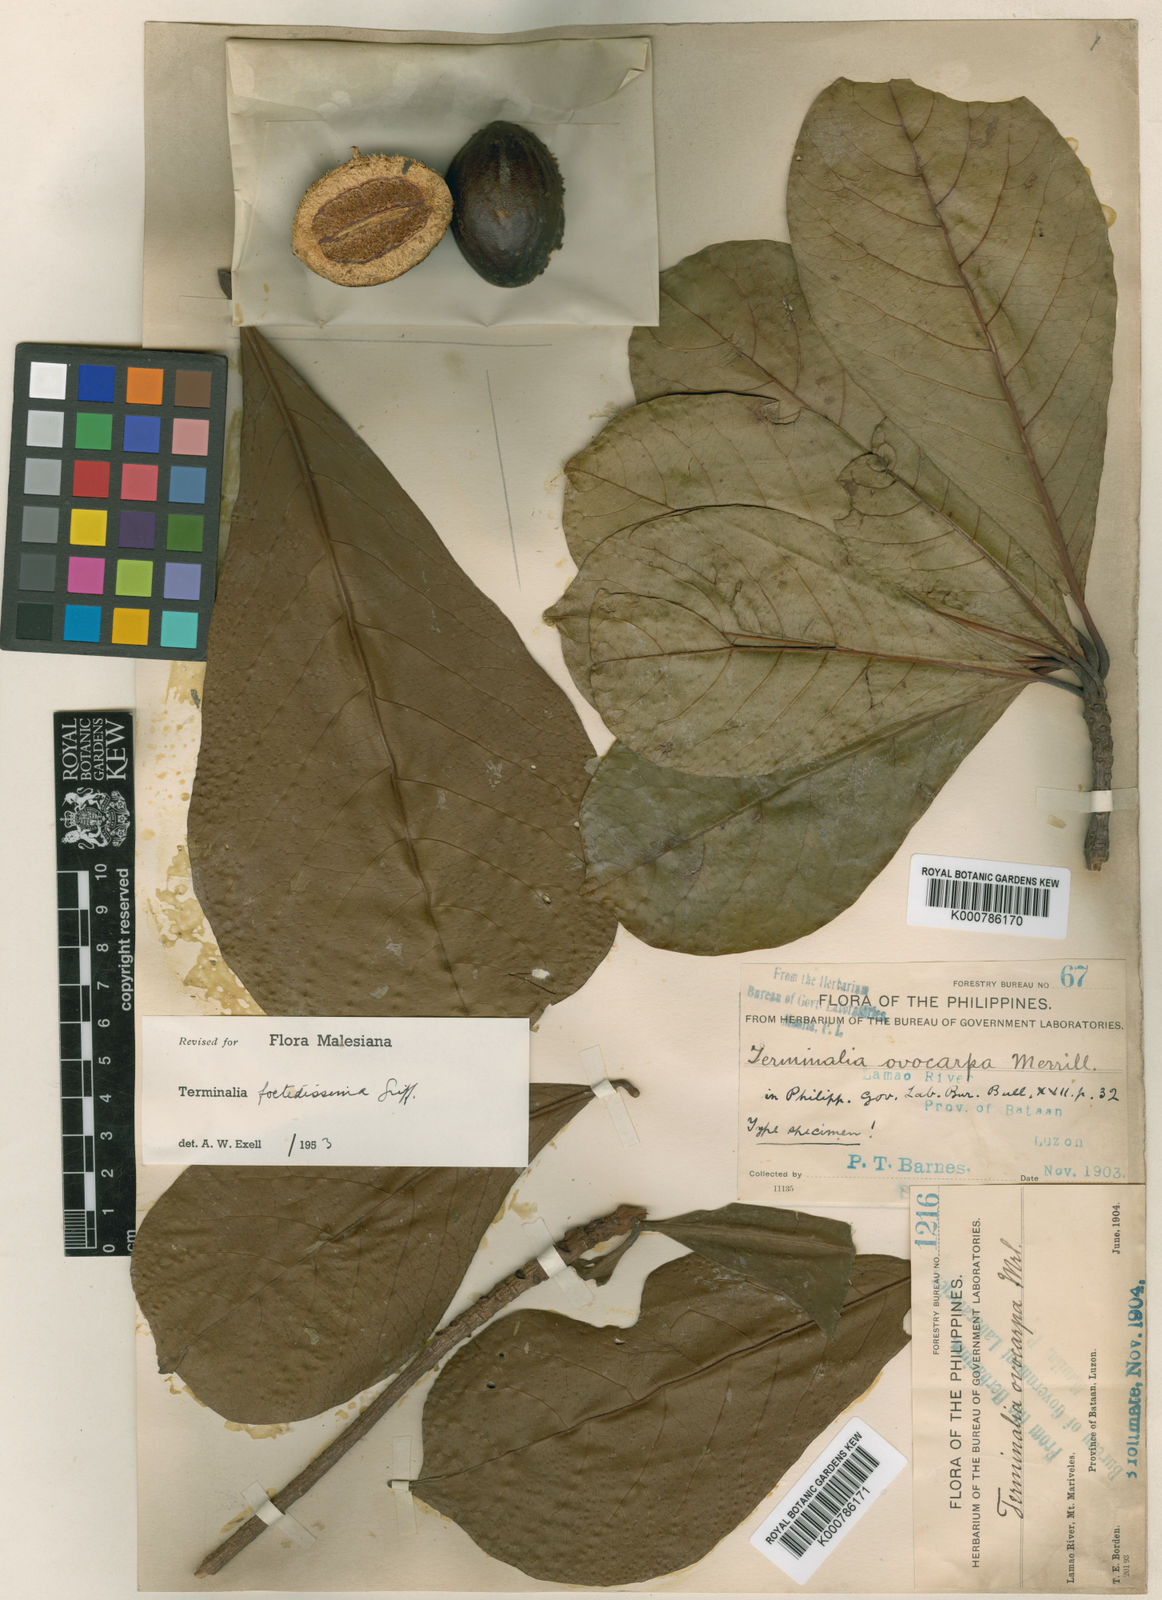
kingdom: Plantae
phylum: Tracheophyta
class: Magnoliopsida
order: Myrtales
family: Combretaceae
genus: Terminalia
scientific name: Terminalia foetidissima
